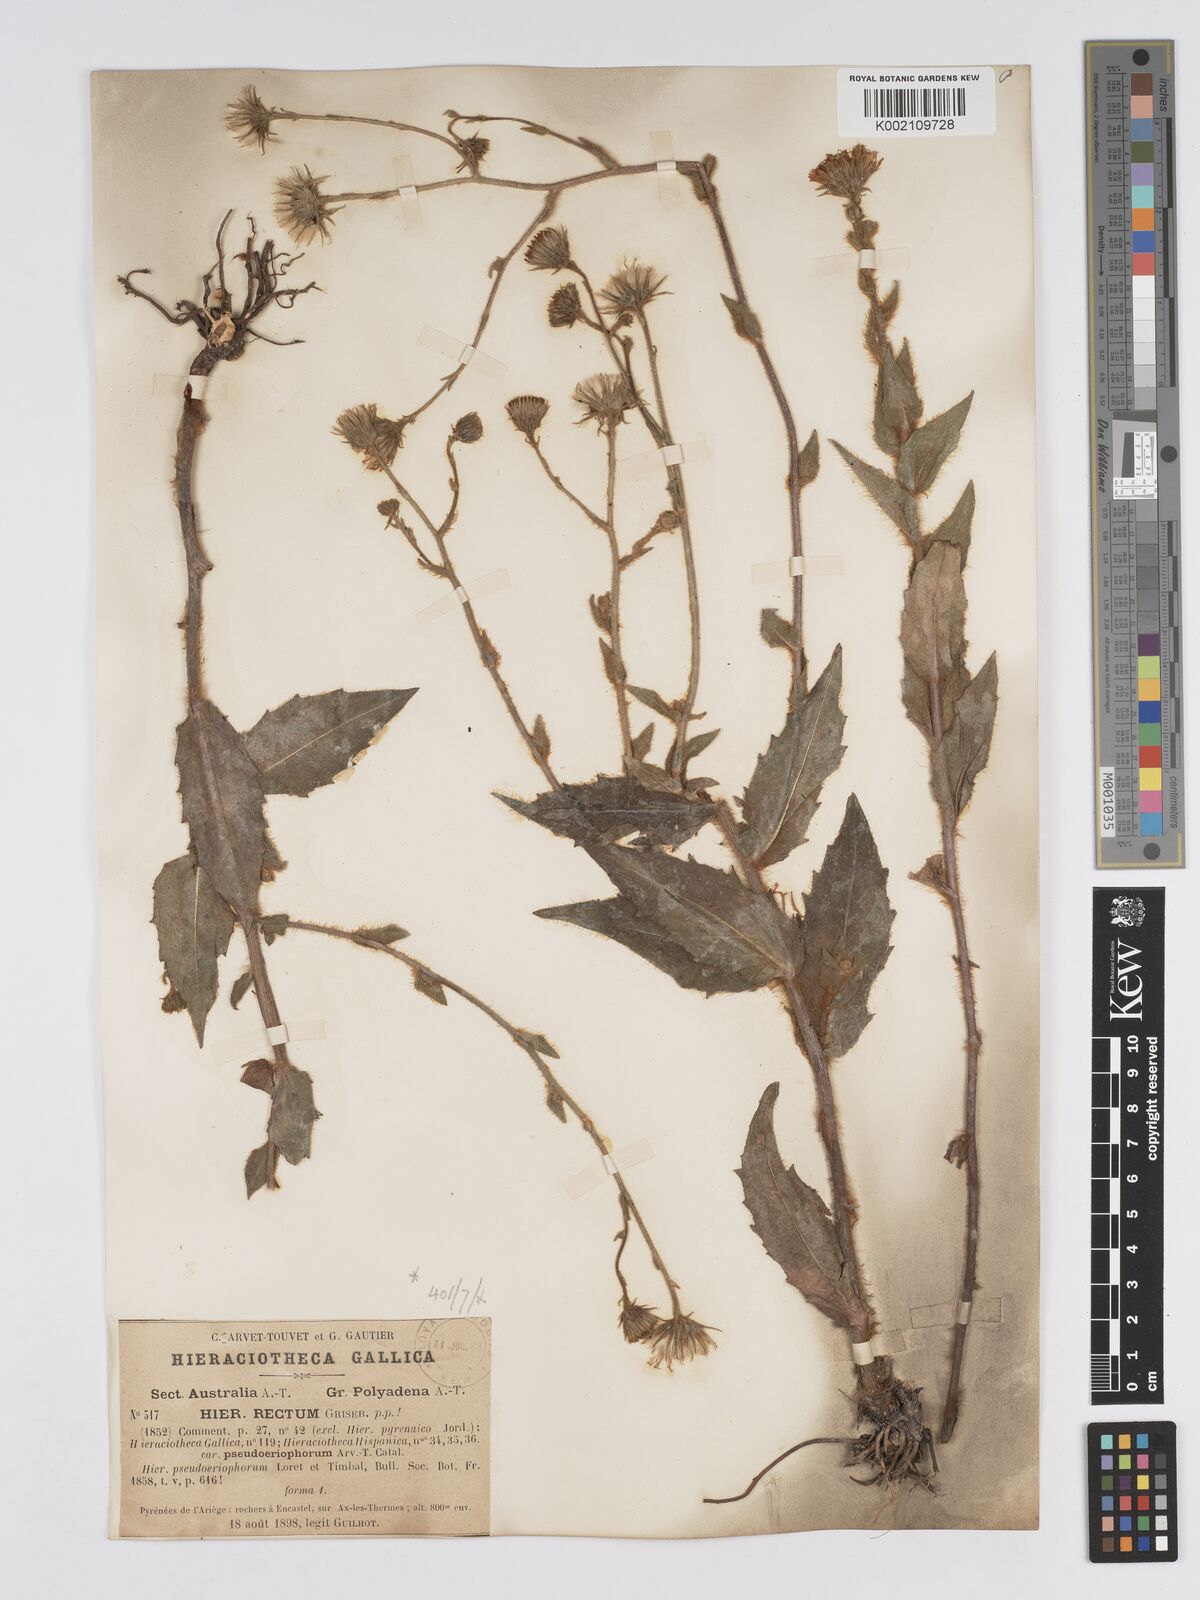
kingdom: Plantae
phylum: Tracheophyta
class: Magnoliopsida
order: Asterales
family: Asteraceae
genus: Hieracium
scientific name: Hieracium
